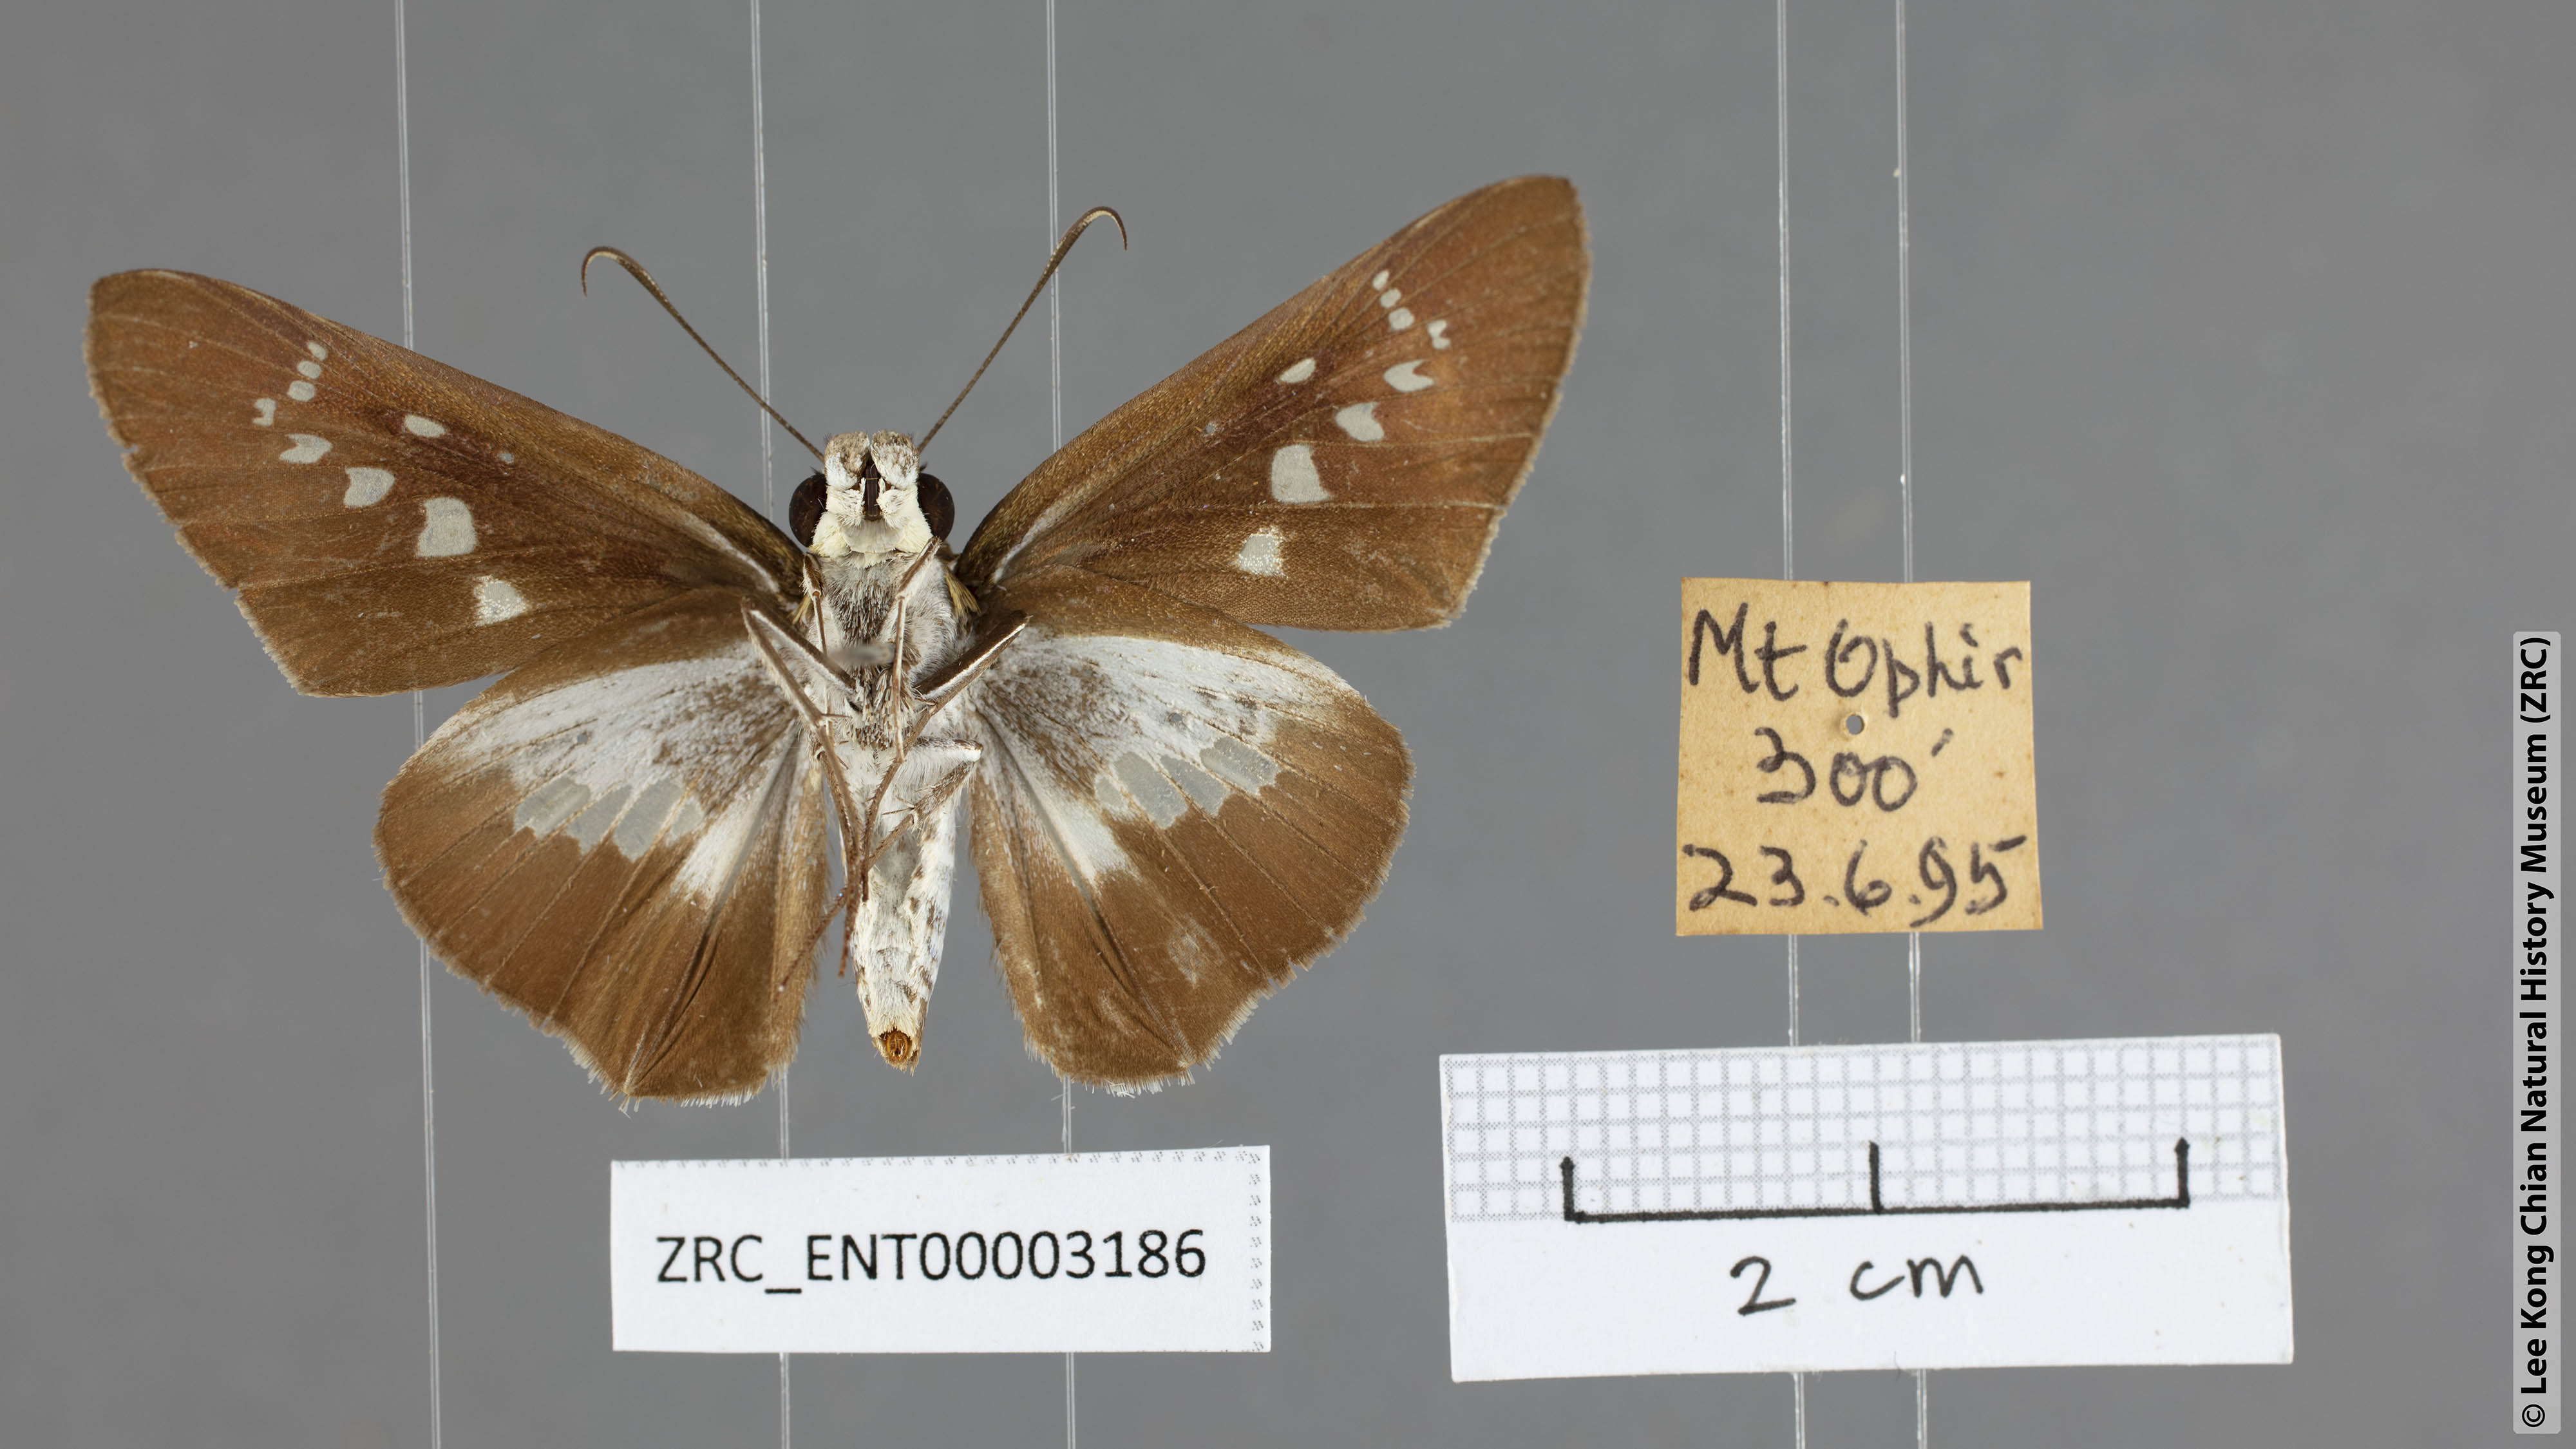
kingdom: Animalia
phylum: Arthropoda
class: Insecta
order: Lepidoptera
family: Hesperiidae
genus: Eetion
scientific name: Eetion elia
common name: White spotted palmer
